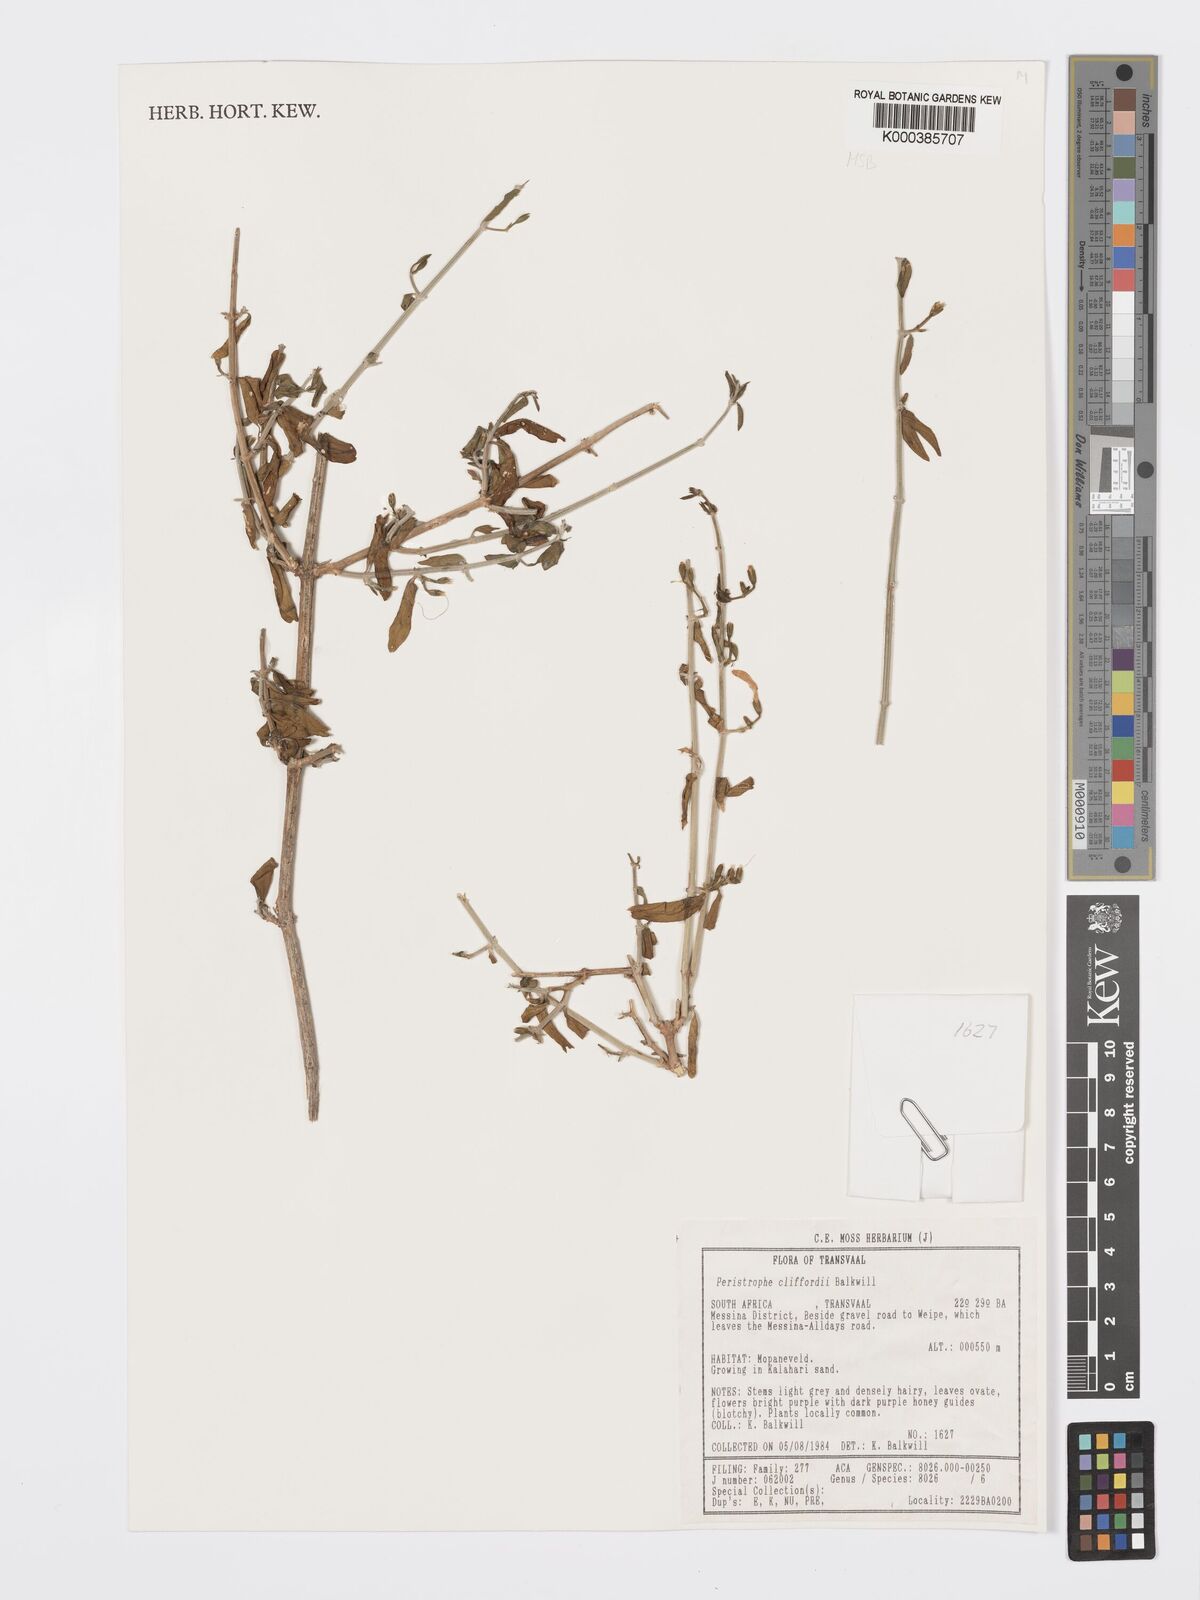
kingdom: Plantae
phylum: Tracheophyta
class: Magnoliopsida
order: Lamiales
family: Acanthaceae
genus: Dicliptera
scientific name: Dicliptera cliffordii
